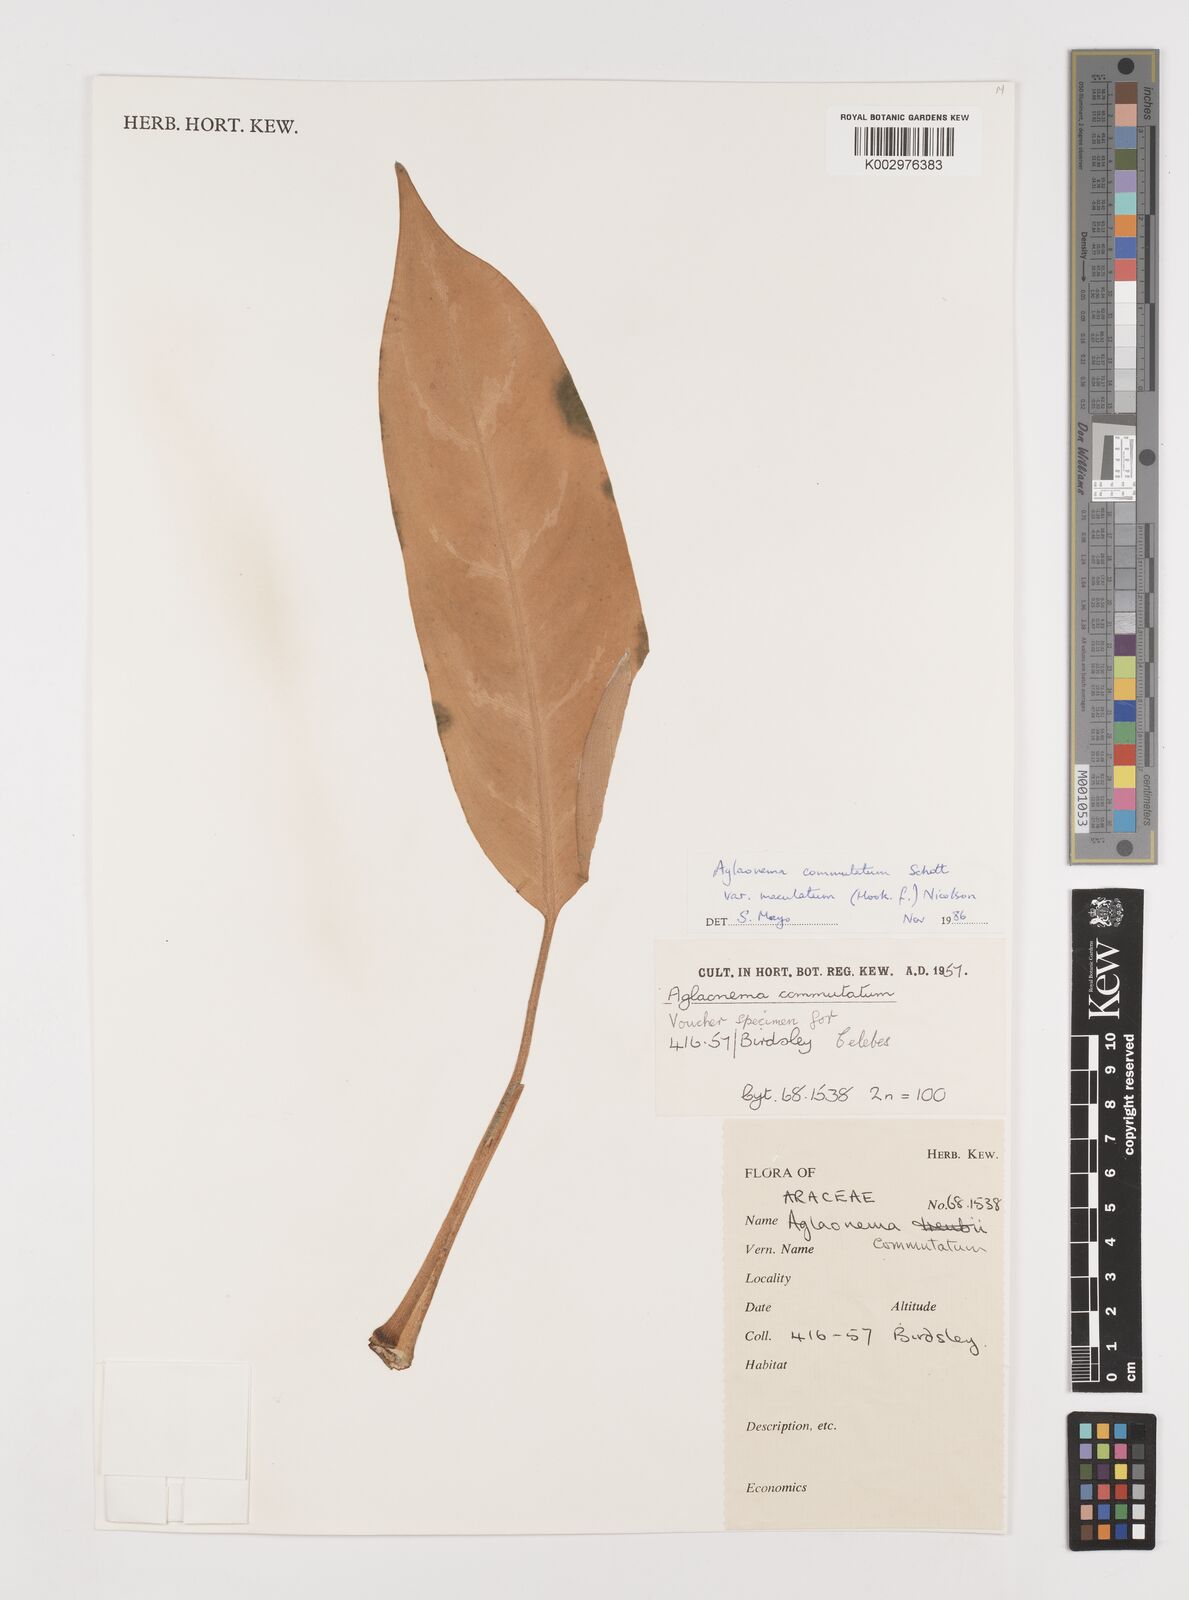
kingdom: Plantae
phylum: Tracheophyta
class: Liliopsida
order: Alismatales
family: Araceae
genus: Aglaonema
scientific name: Aglaonema commutatum
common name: Philippine evergreen
